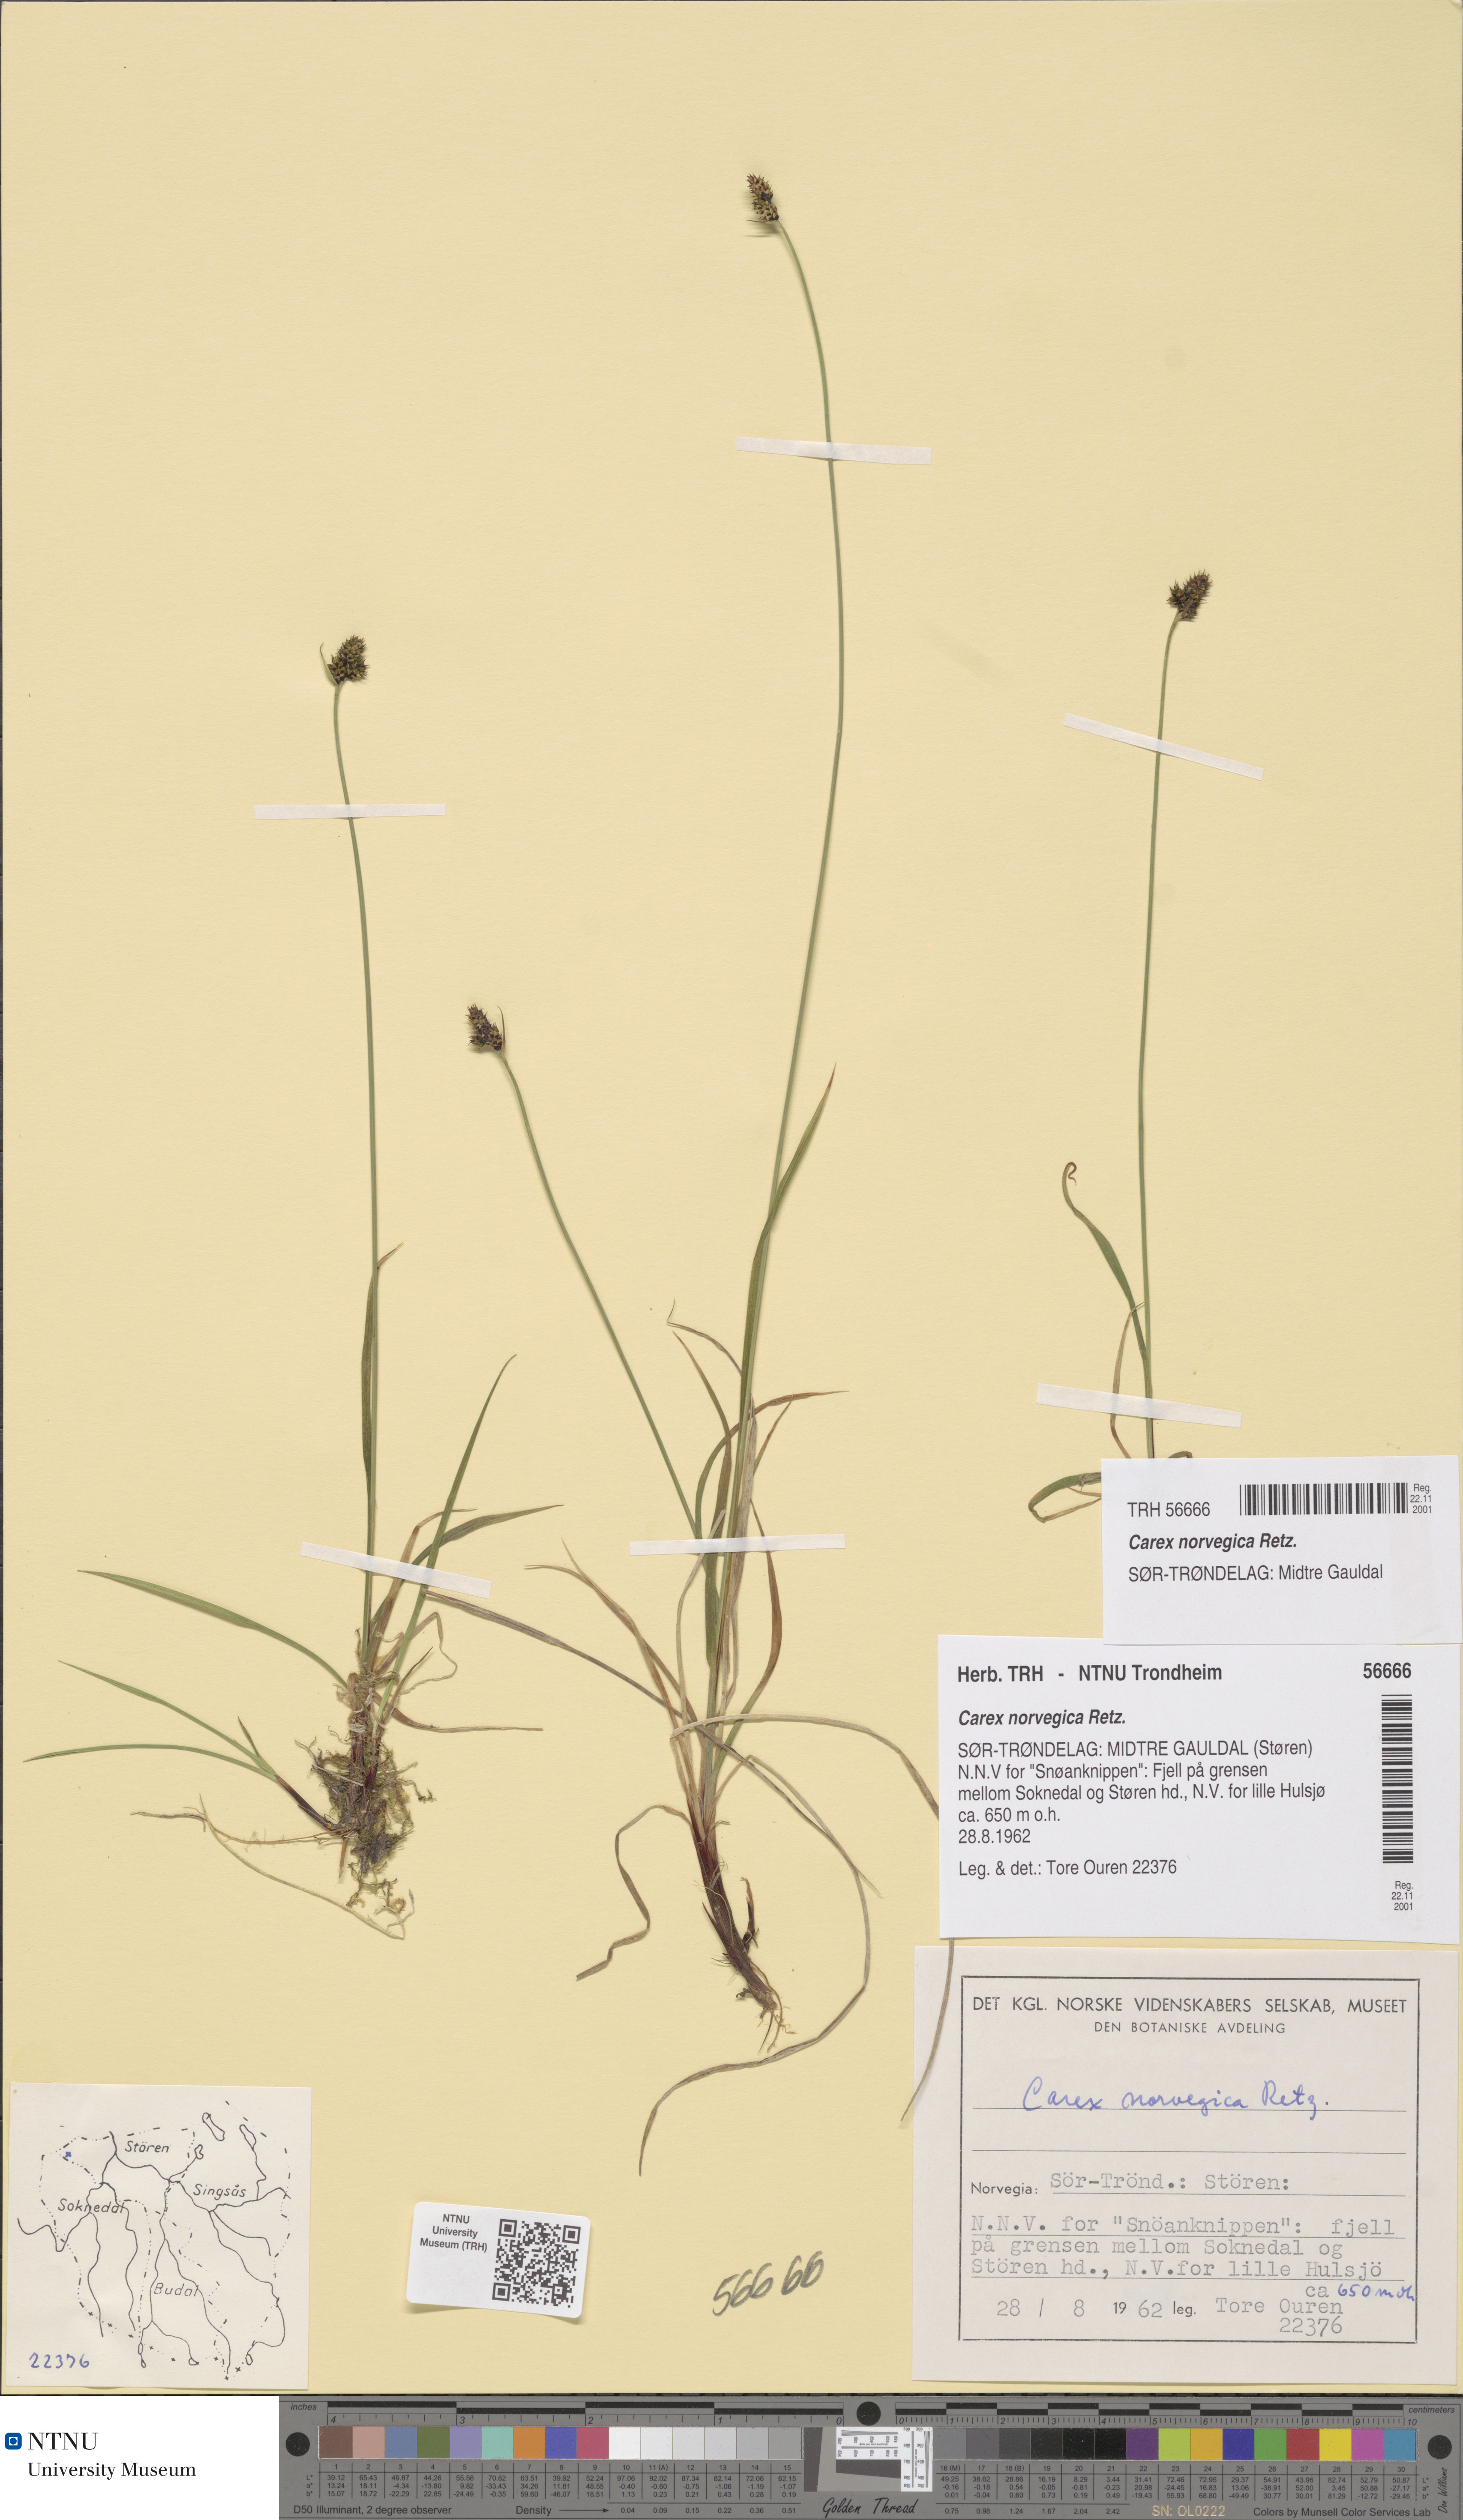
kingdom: Plantae
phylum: Tracheophyta
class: Liliopsida
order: Poales
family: Cyperaceae
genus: Carex
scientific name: Carex norvegica
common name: Close-headed alpine-sedge
